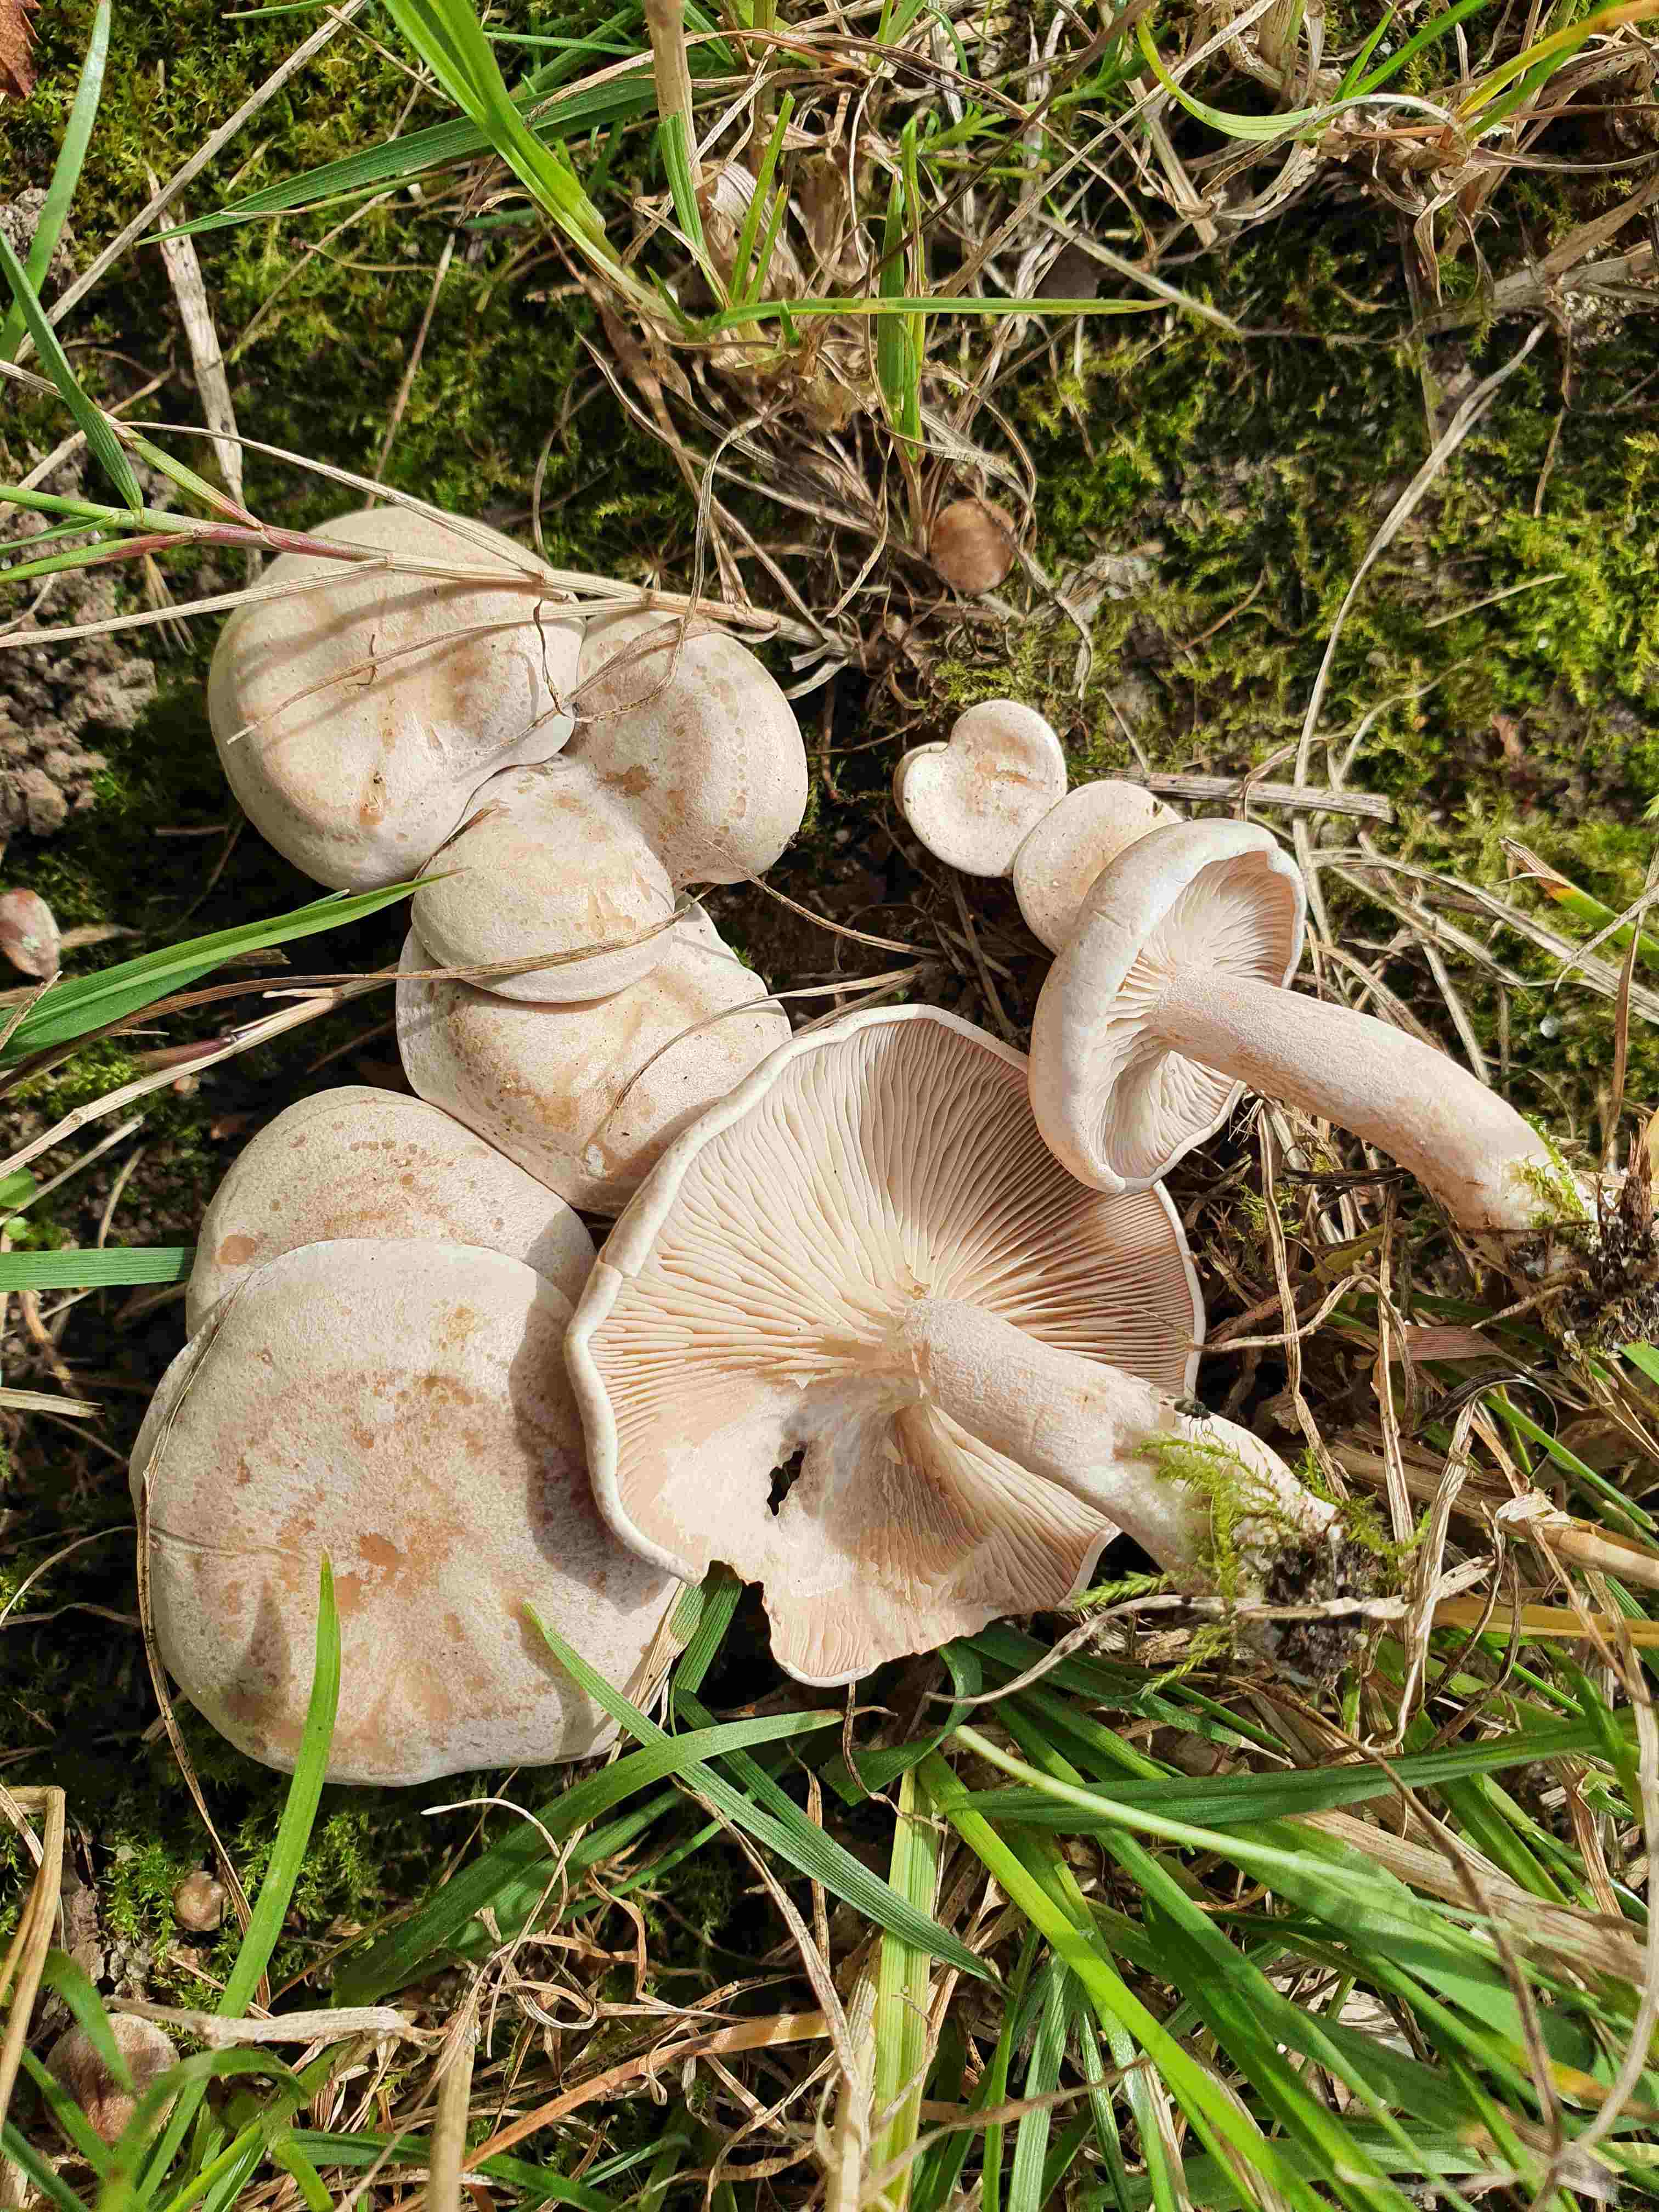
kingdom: Fungi
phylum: Basidiomycota
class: Agaricomycetes
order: Agaricales
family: Tricholomataceae
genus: Clitocybe
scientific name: Clitocybe rivulosa
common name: eng-tragthat
